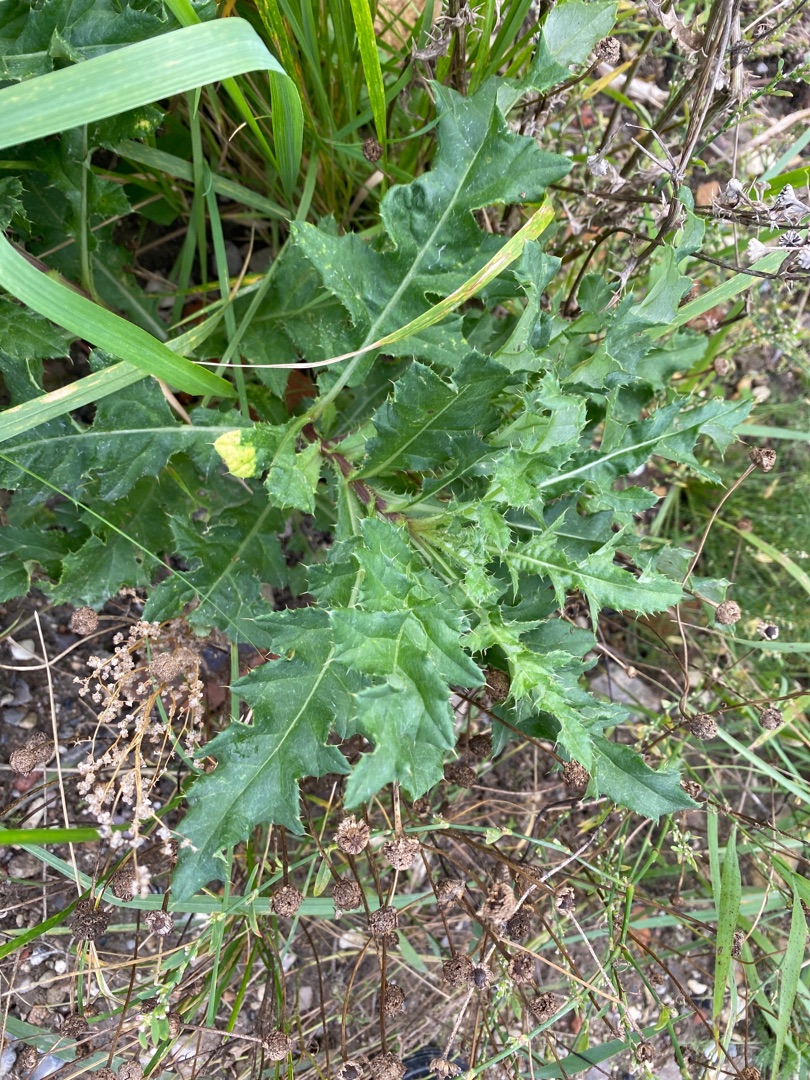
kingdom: Plantae
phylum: Tracheophyta
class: Magnoliopsida
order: Asterales
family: Asteraceae
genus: Cirsium
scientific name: Cirsium arvense
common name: Ager-tidsel
